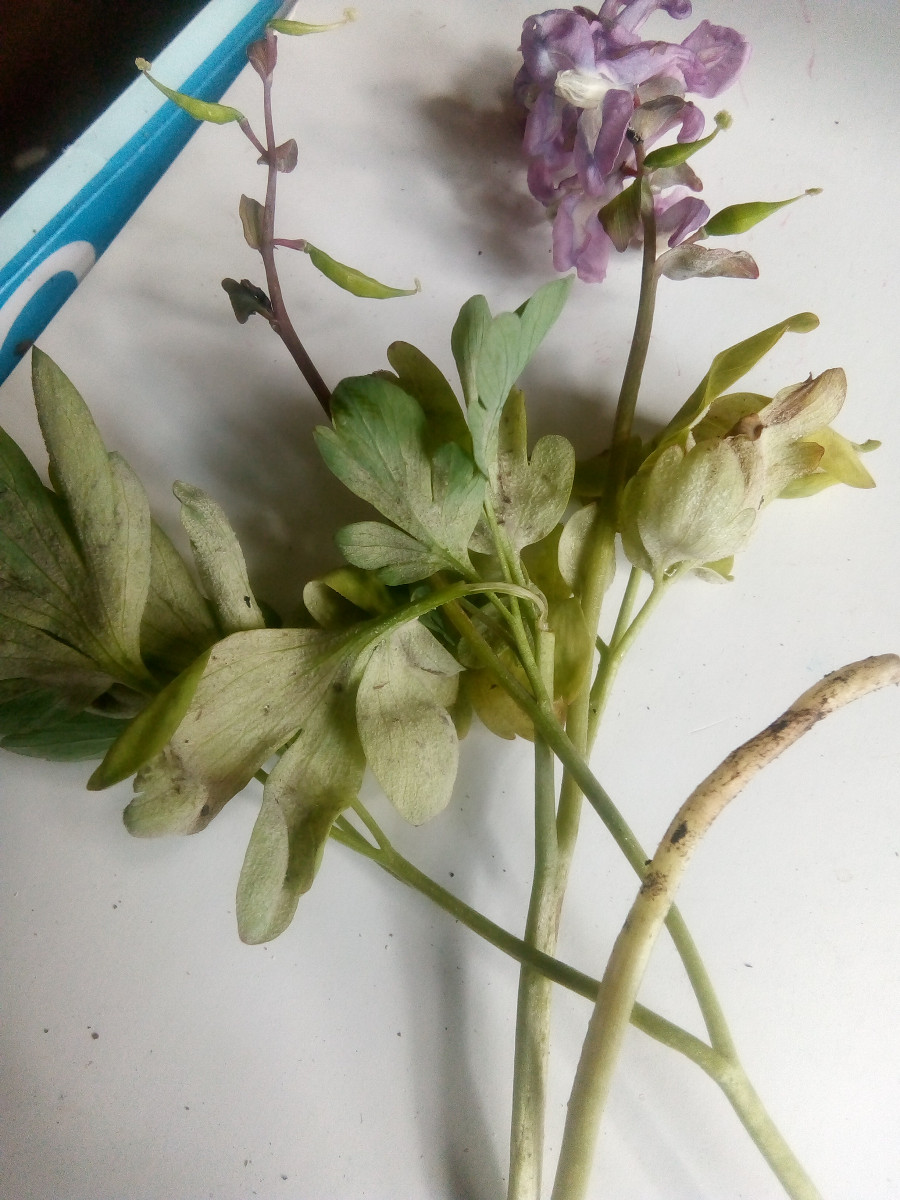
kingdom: Chromista
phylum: Oomycota
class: Peronosporea
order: Peronosporales
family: Peronosporaceae
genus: Peronospora
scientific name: Peronospora bulbocapni
